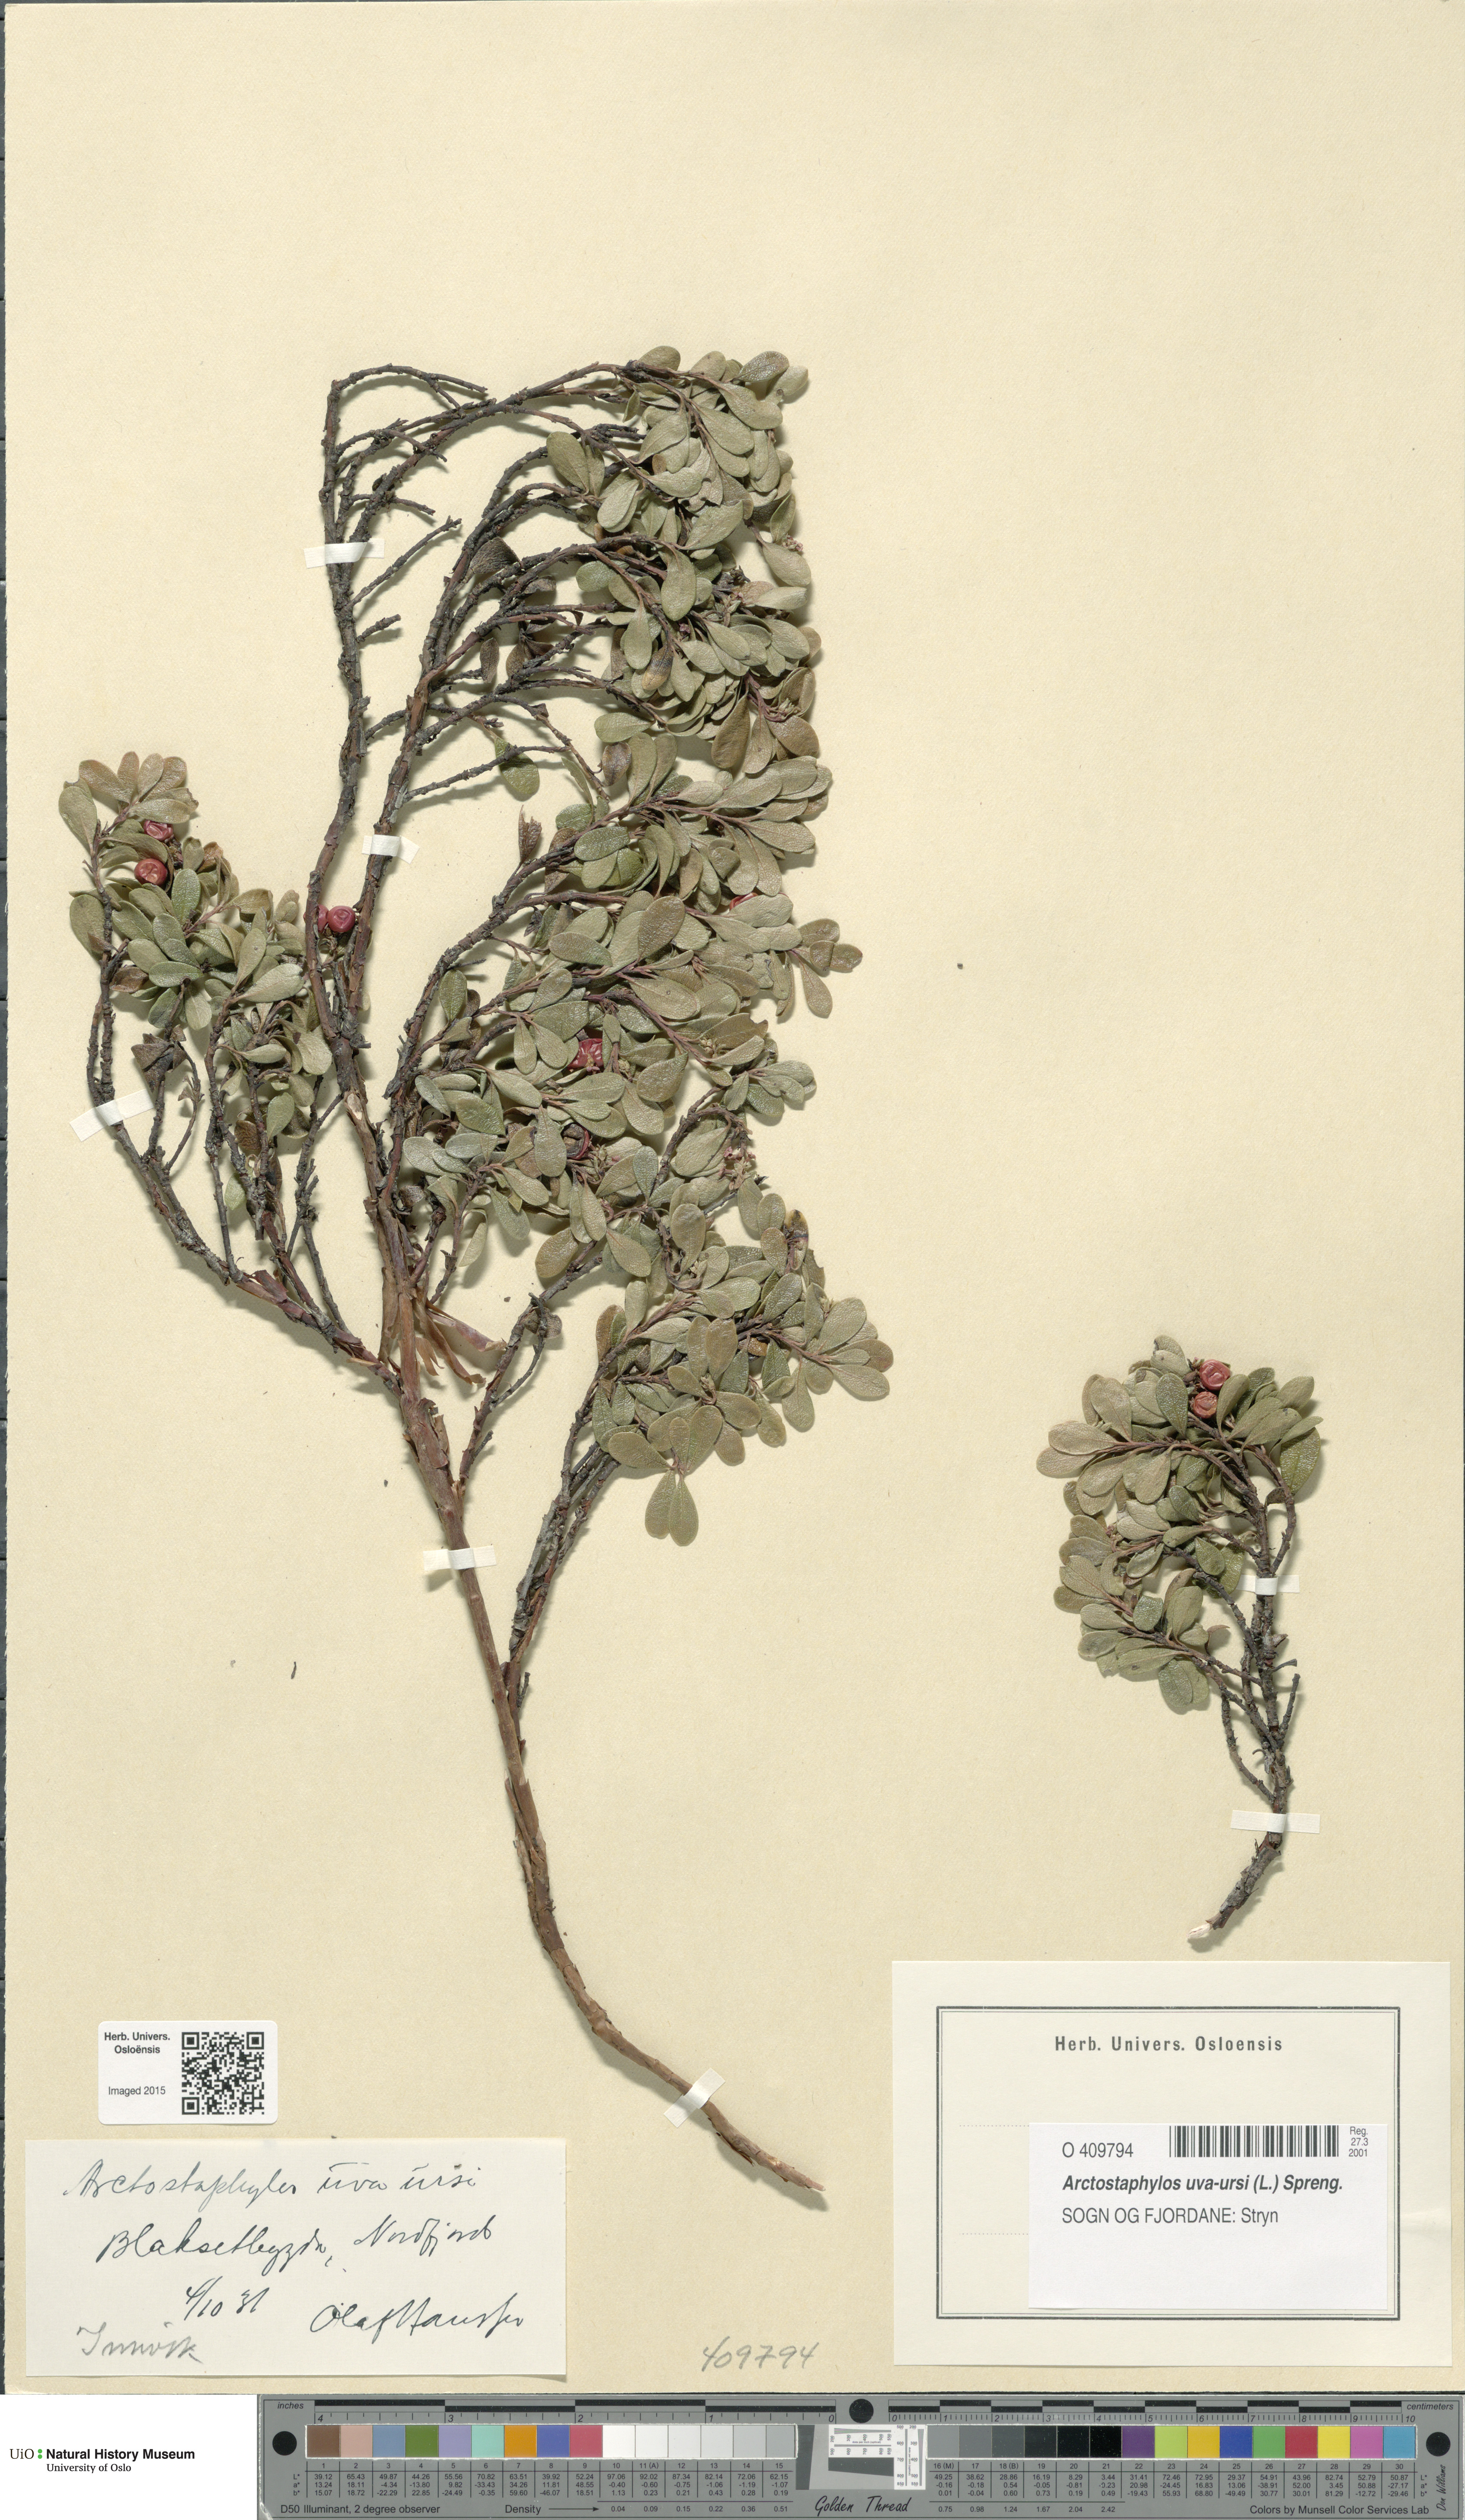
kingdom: Plantae
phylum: Tracheophyta
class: Magnoliopsida
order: Ericales
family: Ericaceae
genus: Arctostaphylos
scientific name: Arctostaphylos uva-ursi
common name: Bearberry
